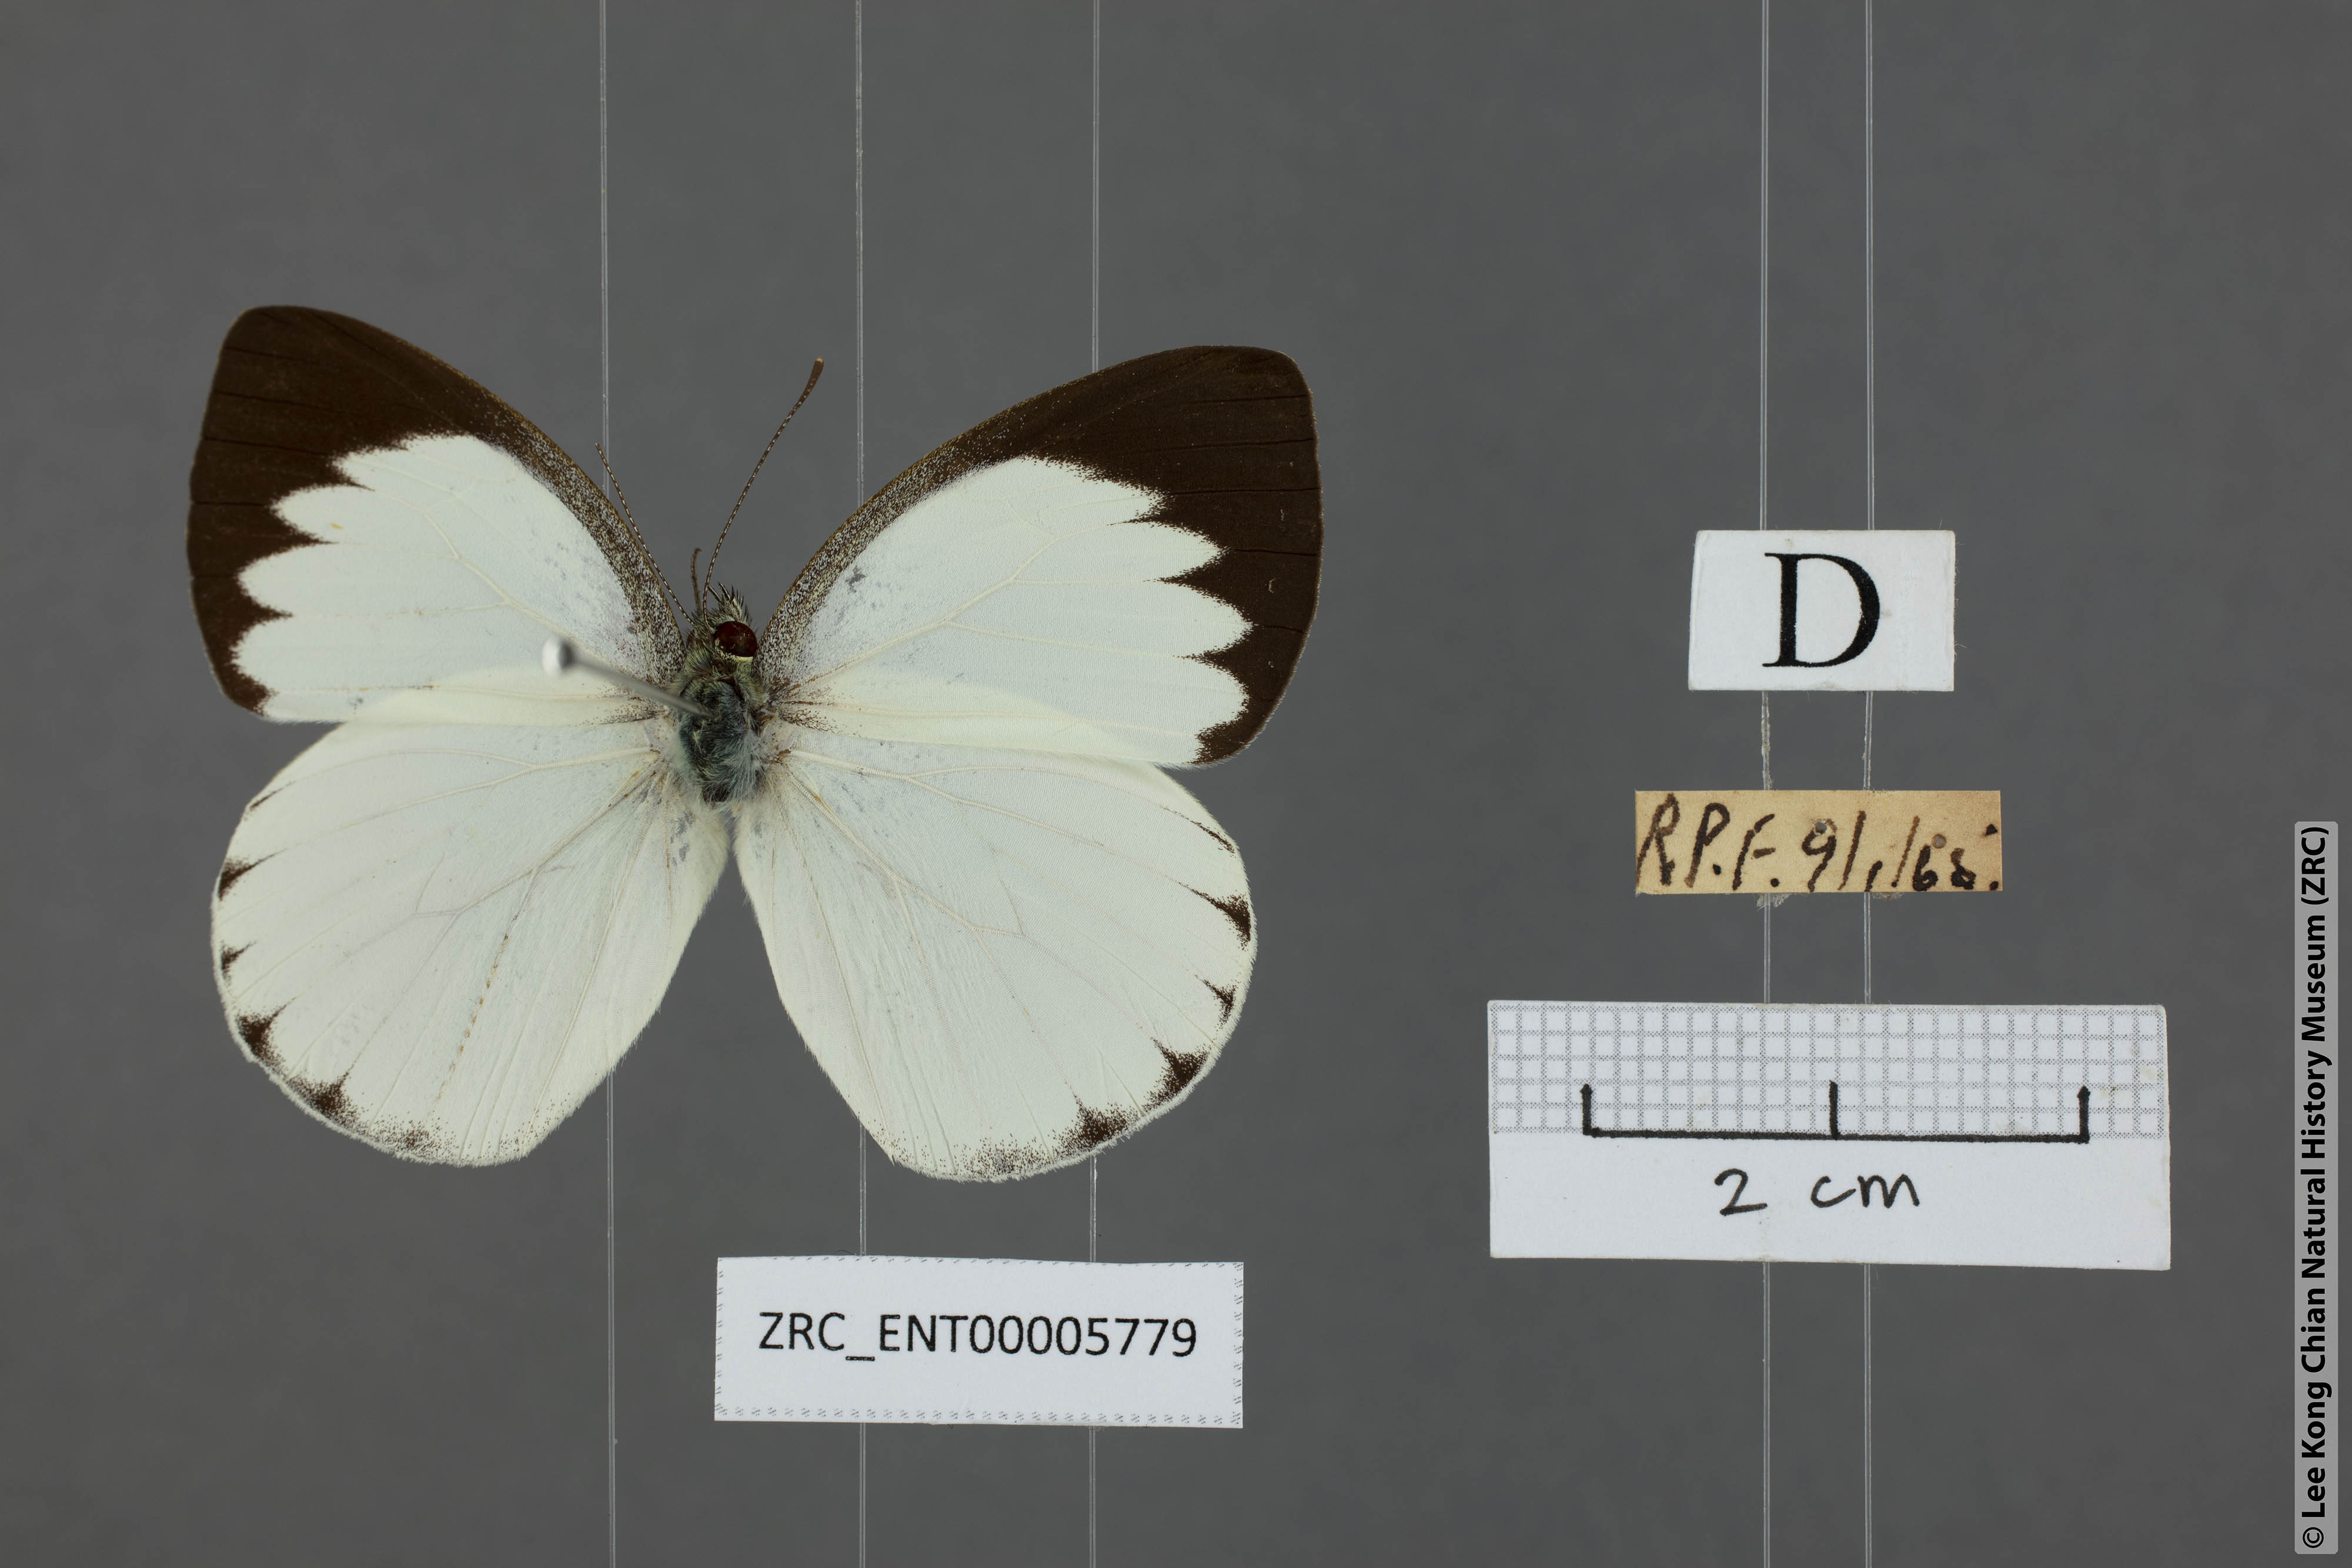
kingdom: Animalia
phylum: Arthropoda
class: Insecta
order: Lepidoptera
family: Pieridae
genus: Phrissura
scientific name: Phrissura aegis
